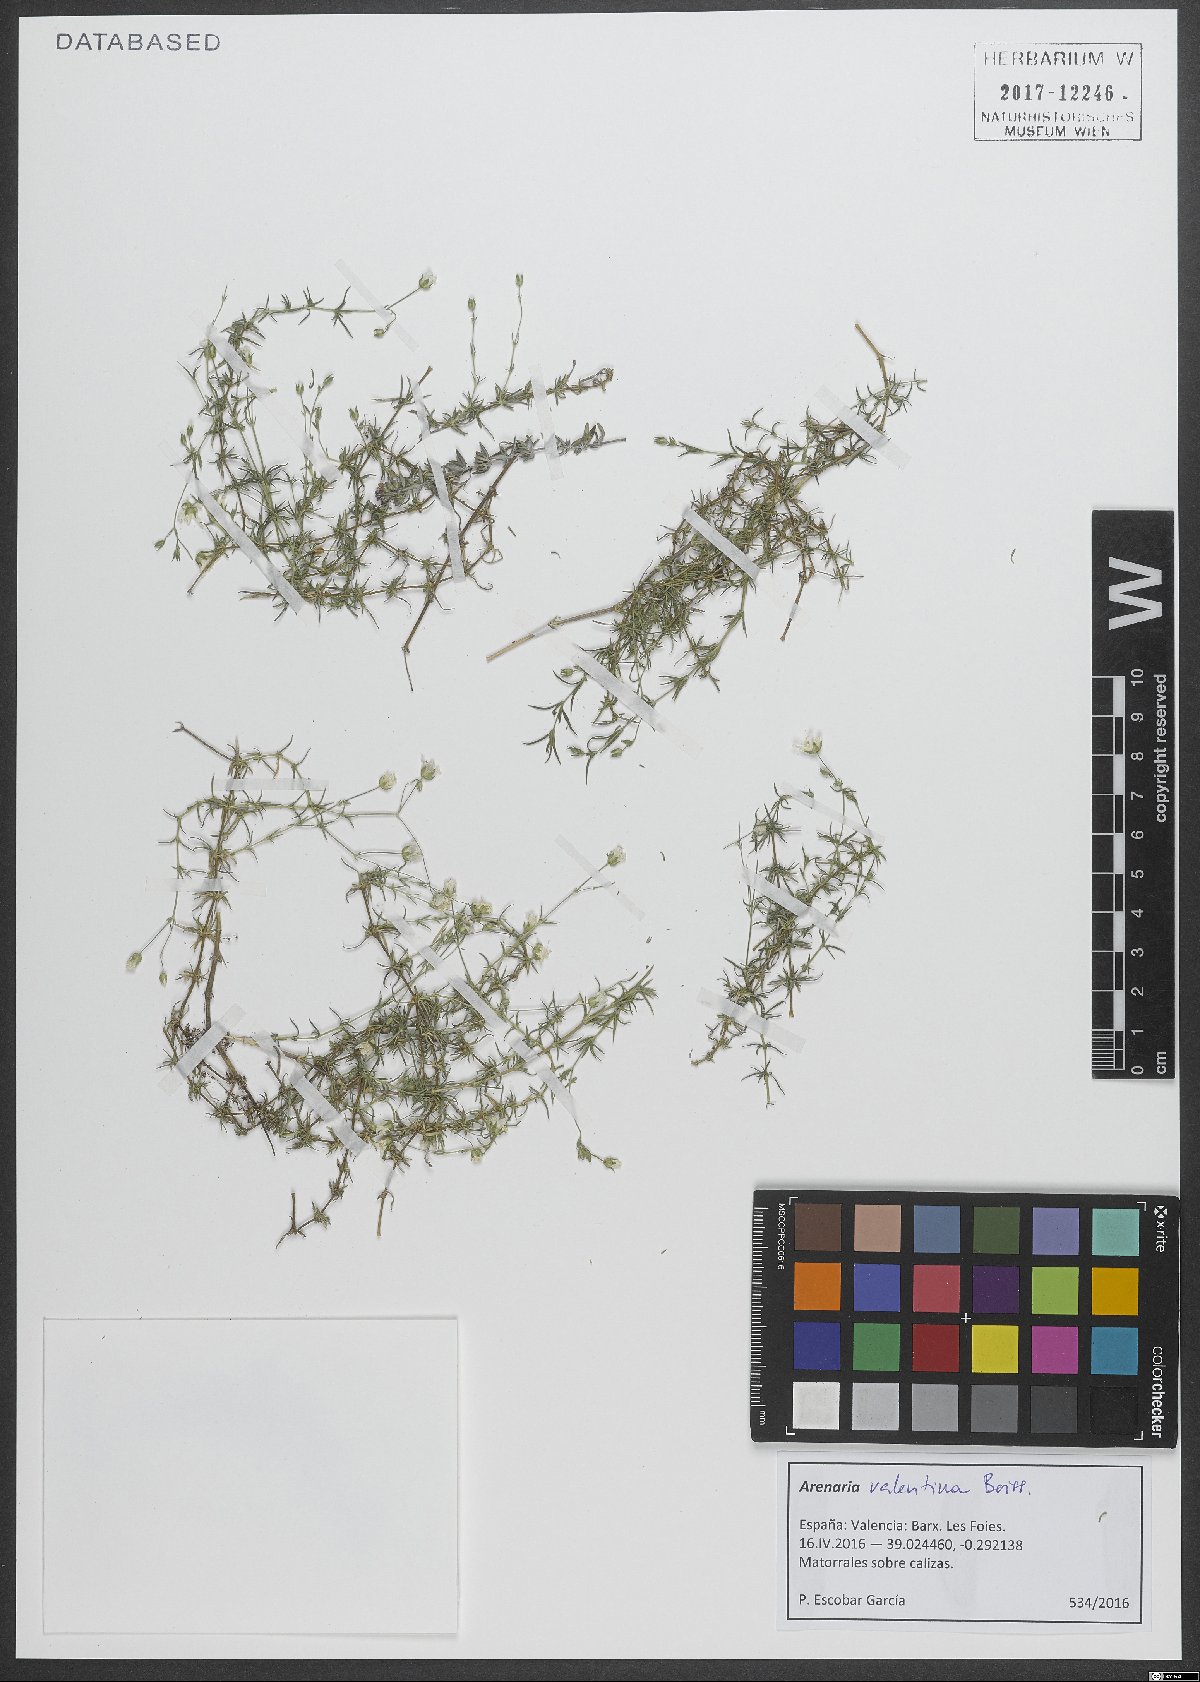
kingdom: Plantae
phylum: Tracheophyta
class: Magnoliopsida
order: Caryophyllales
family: Caryophyllaceae
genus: Arenaria
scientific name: Arenaria grandiflora
